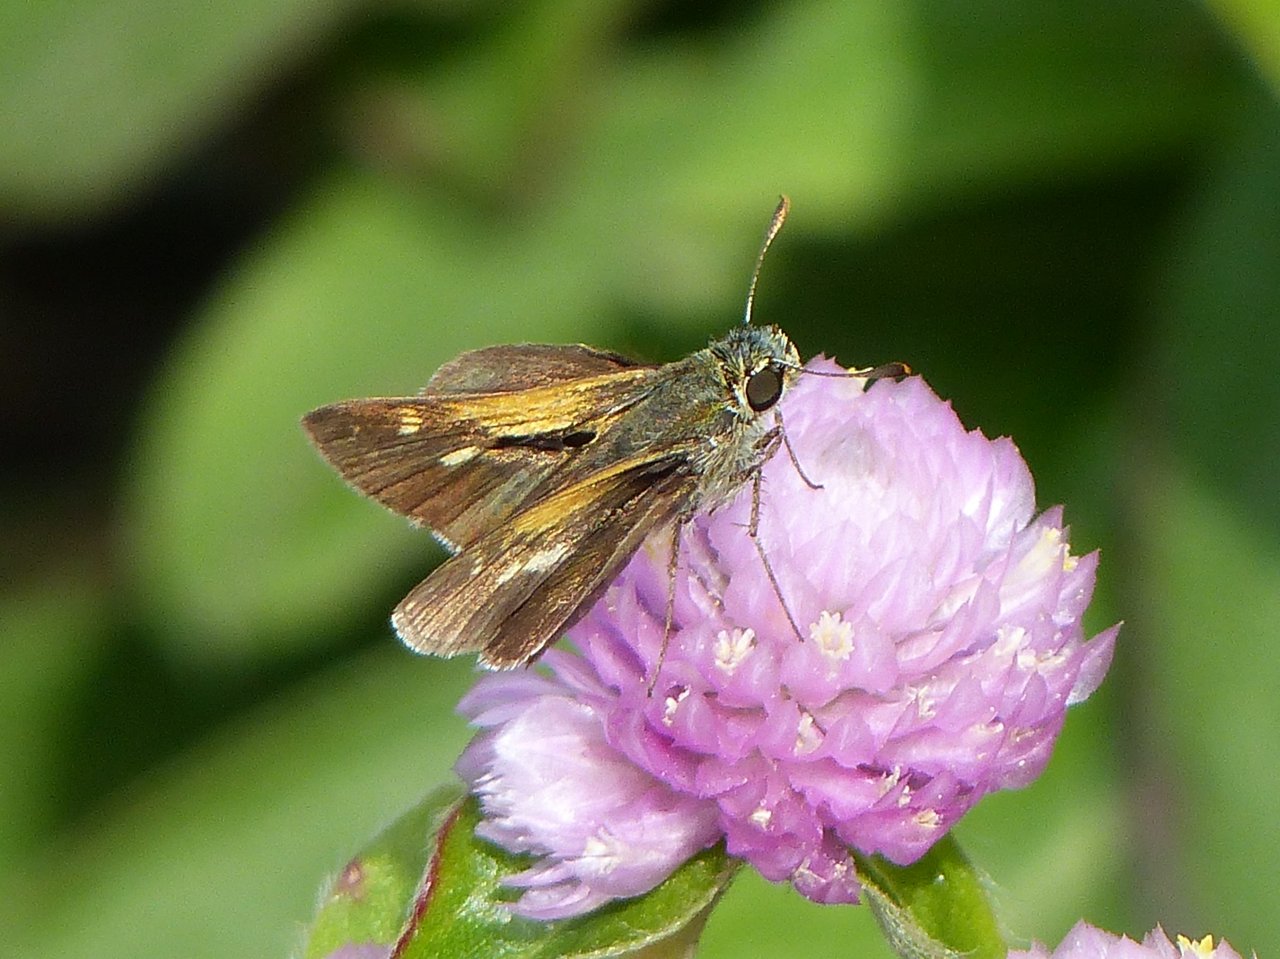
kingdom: Animalia
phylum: Arthropoda
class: Insecta
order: Lepidoptera
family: Hesperiidae
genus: Polites
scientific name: Polites themistocles
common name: Tawny-edged Skipper
